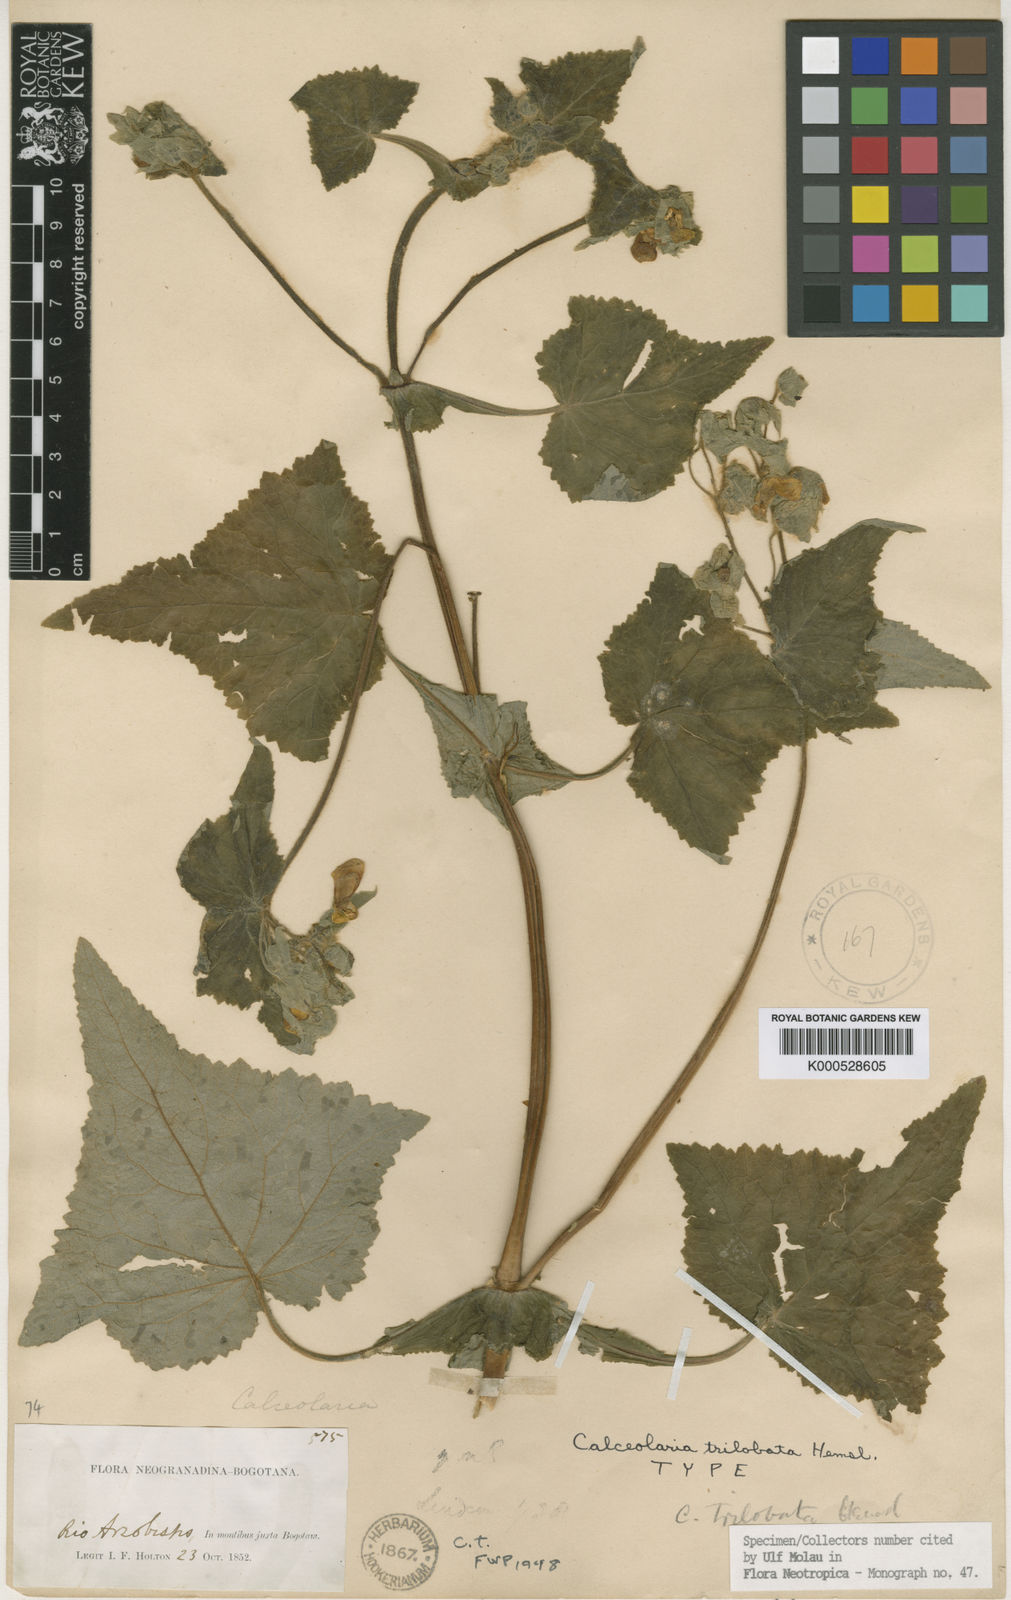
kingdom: Plantae
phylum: Tracheophyta
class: Magnoliopsida
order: Lamiales
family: Calceolariaceae
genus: Calceolaria
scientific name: Calceolaria trilobata
